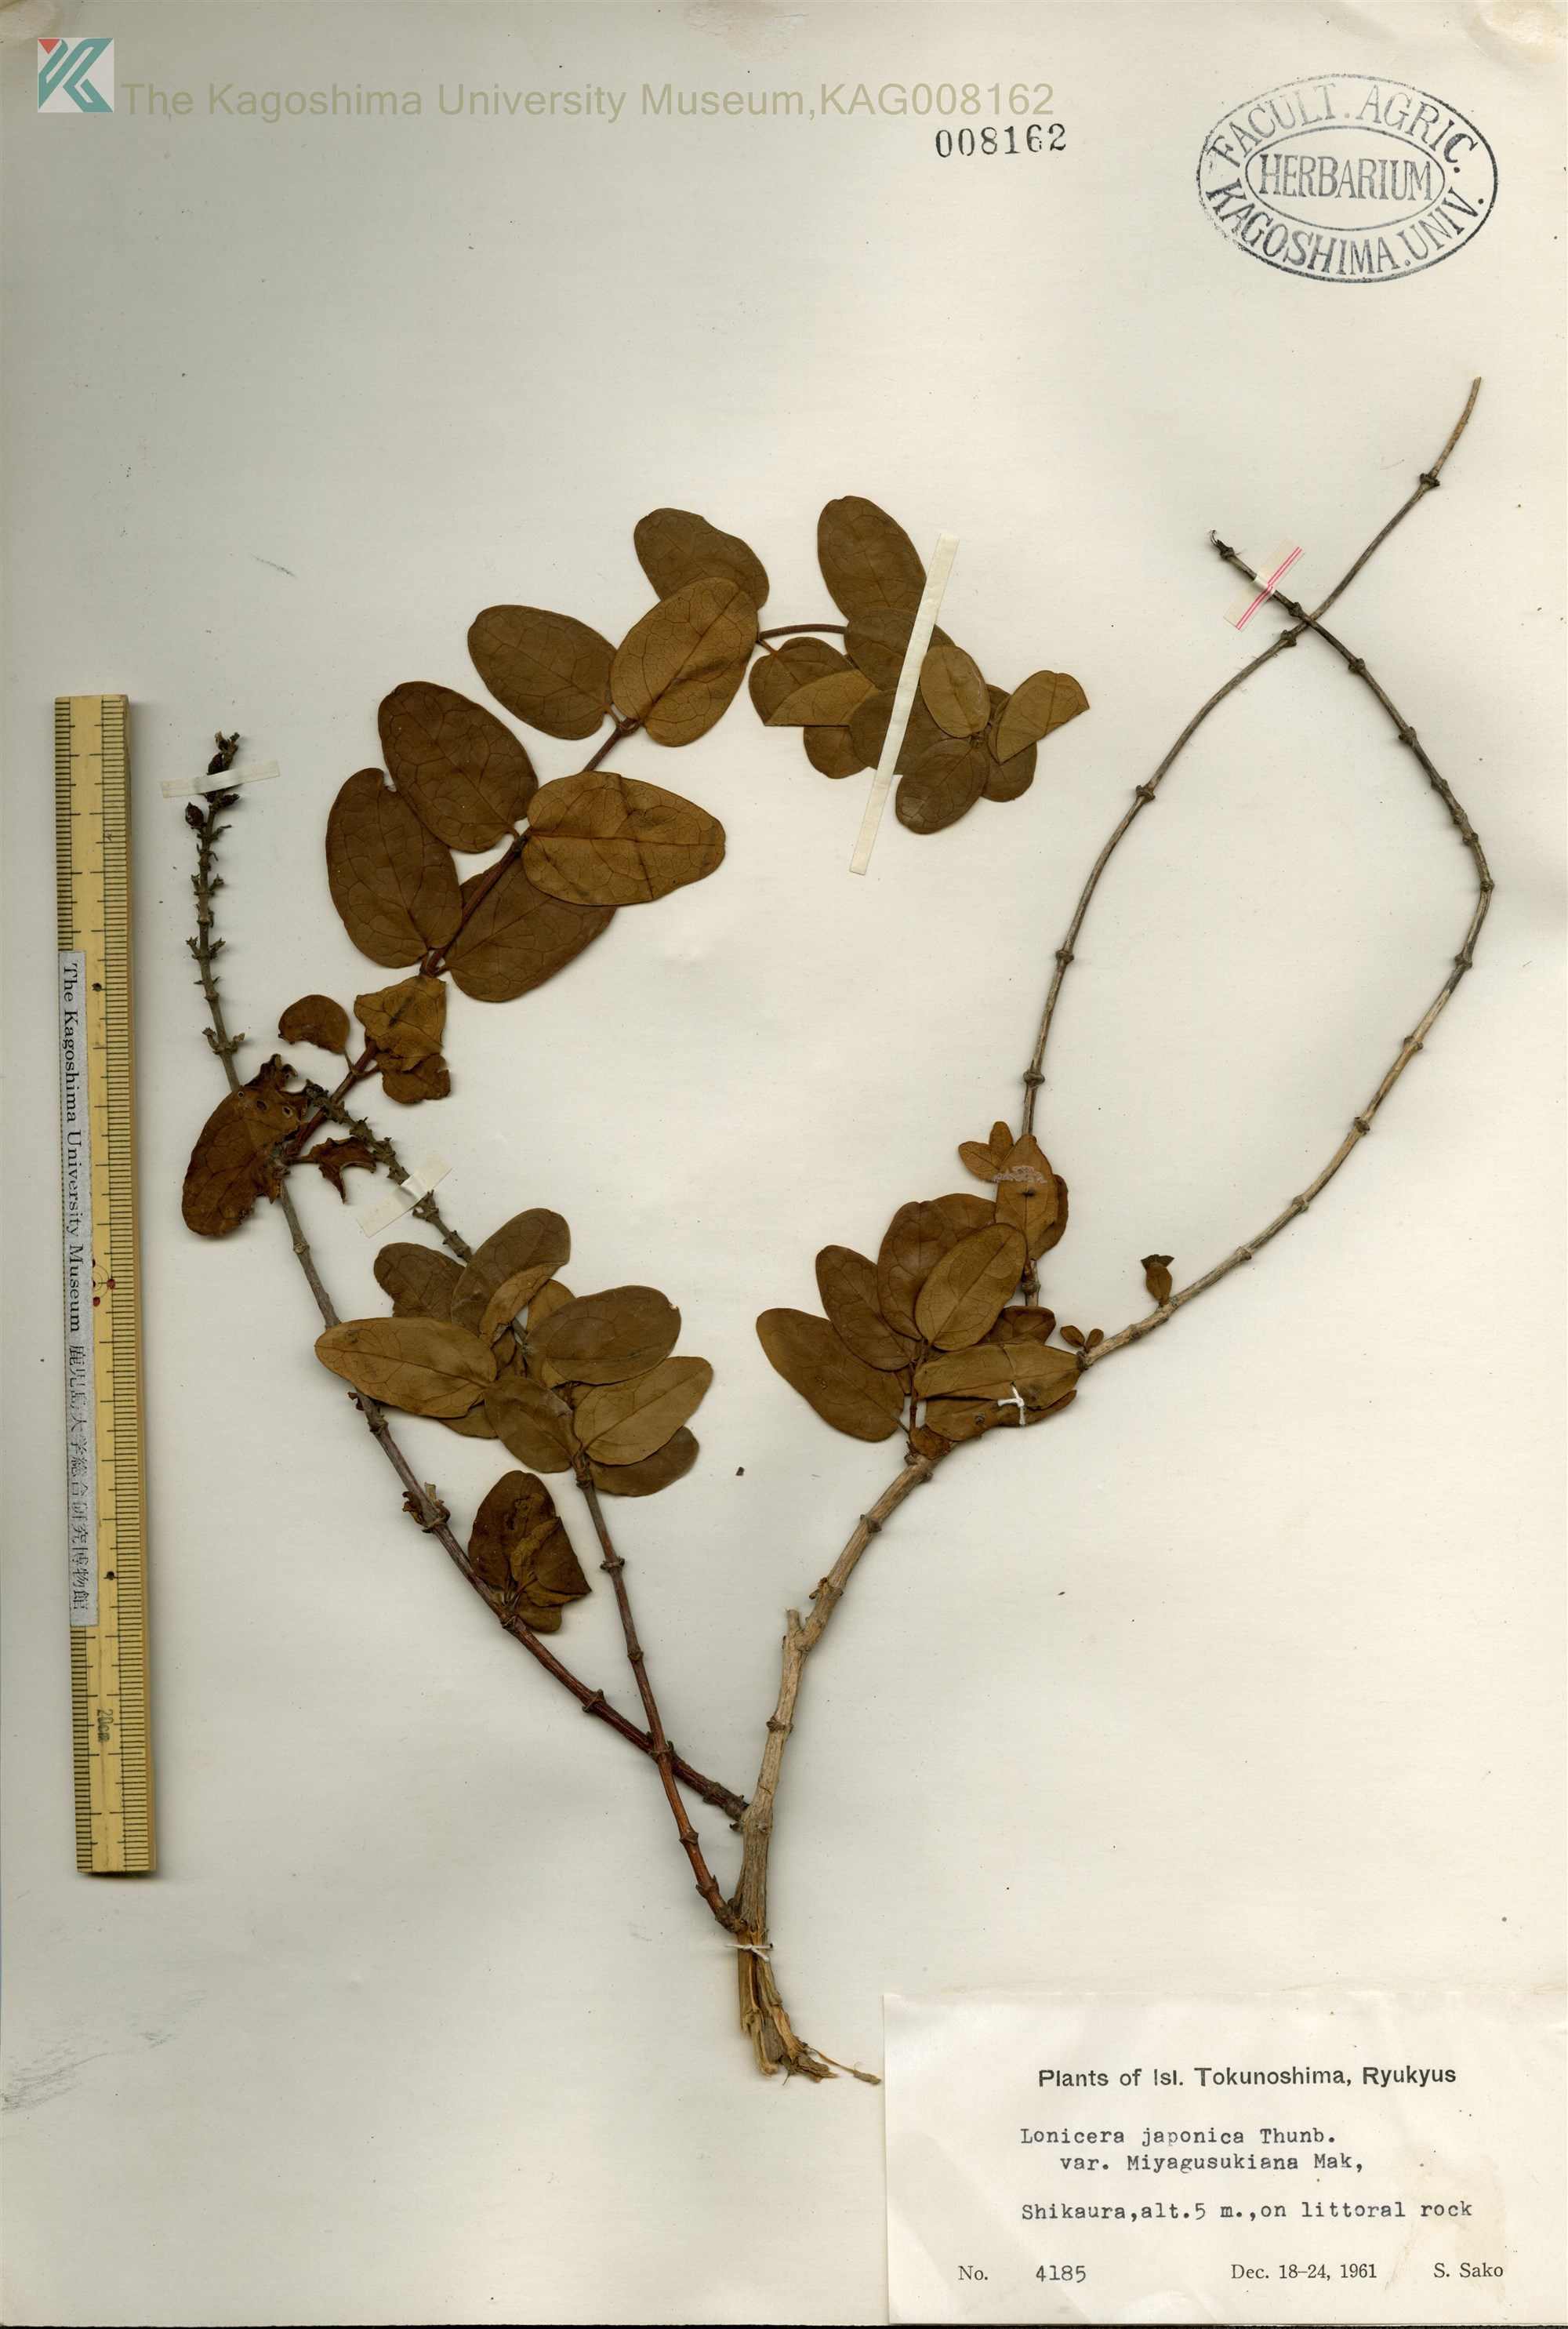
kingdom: Plantae
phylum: Tracheophyta
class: Magnoliopsida
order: Dipsacales
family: Caprifoliaceae
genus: Lonicera
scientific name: Lonicera japonica
